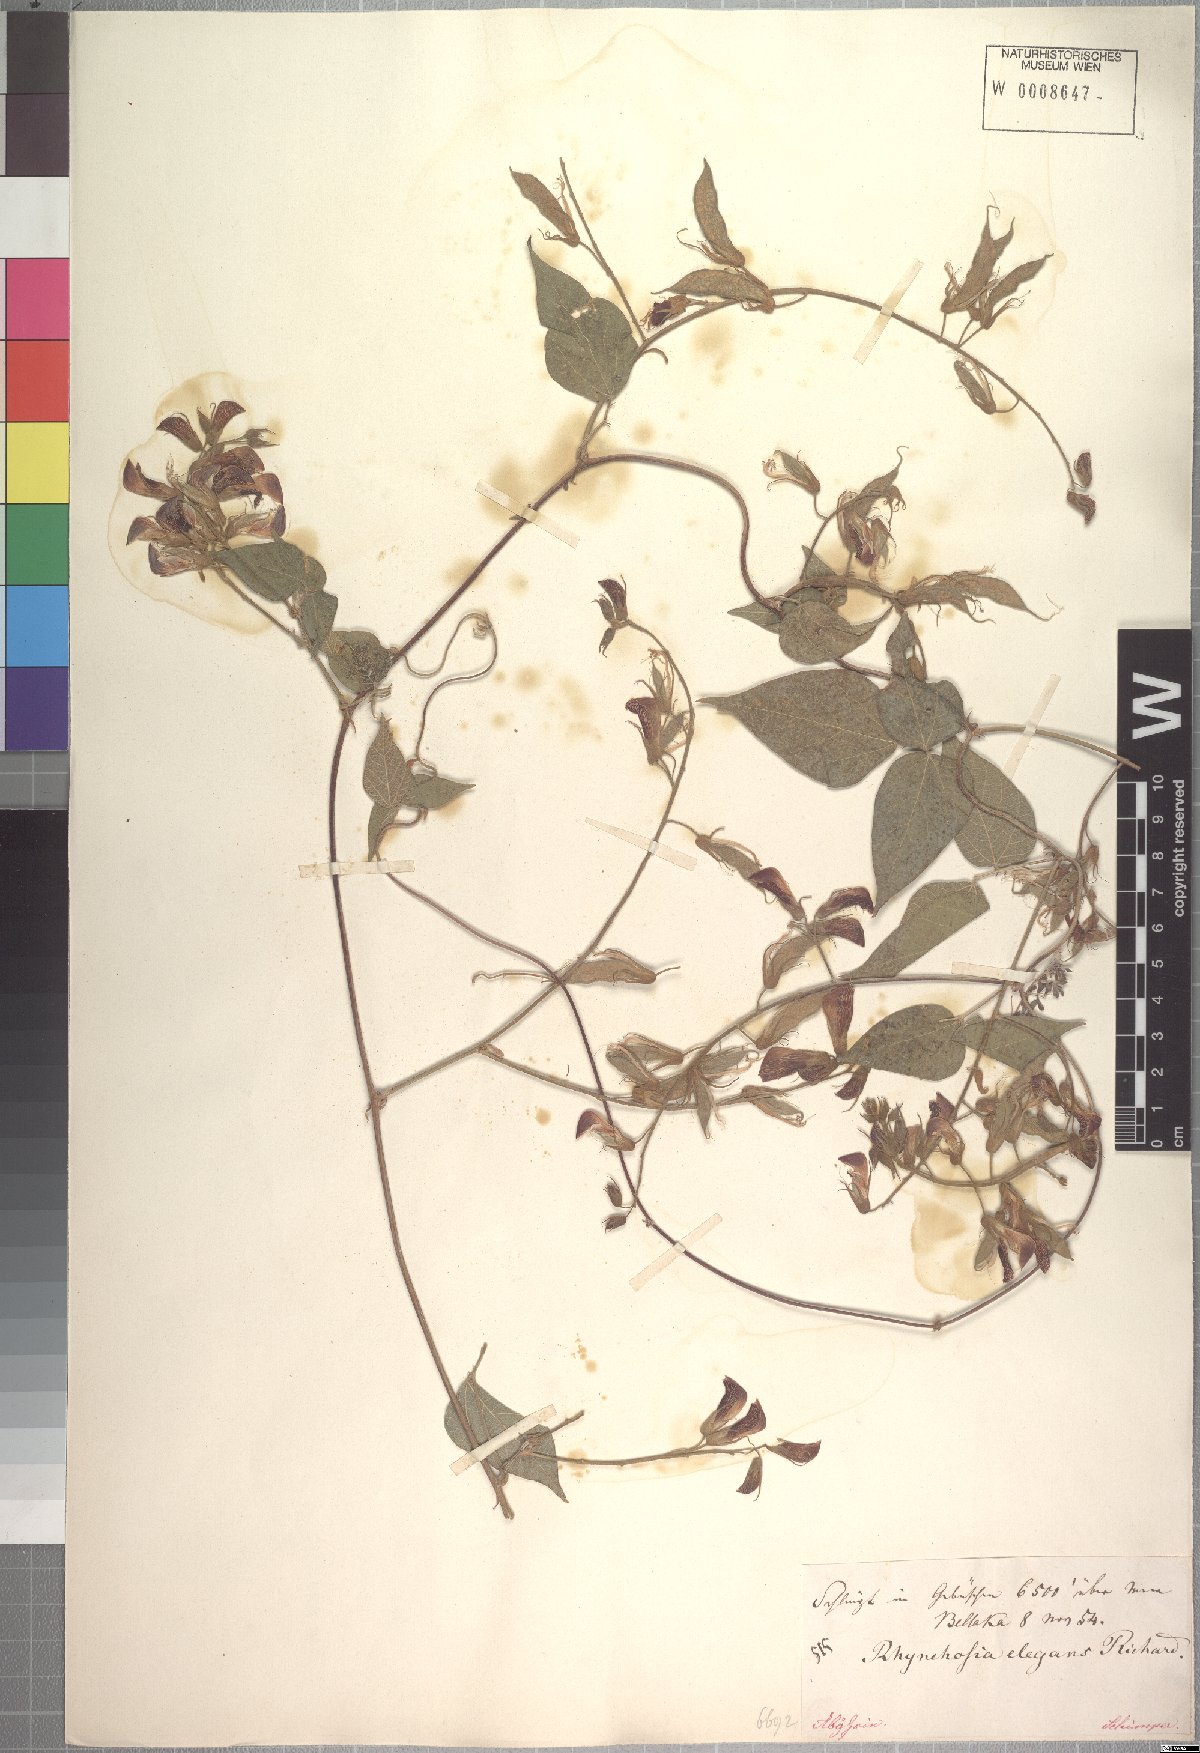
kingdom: Plantae
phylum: Tracheophyta
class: Magnoliopsida
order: Fabales
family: Fabaceae
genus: Rhynchosia
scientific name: Rhynchosia elegans
